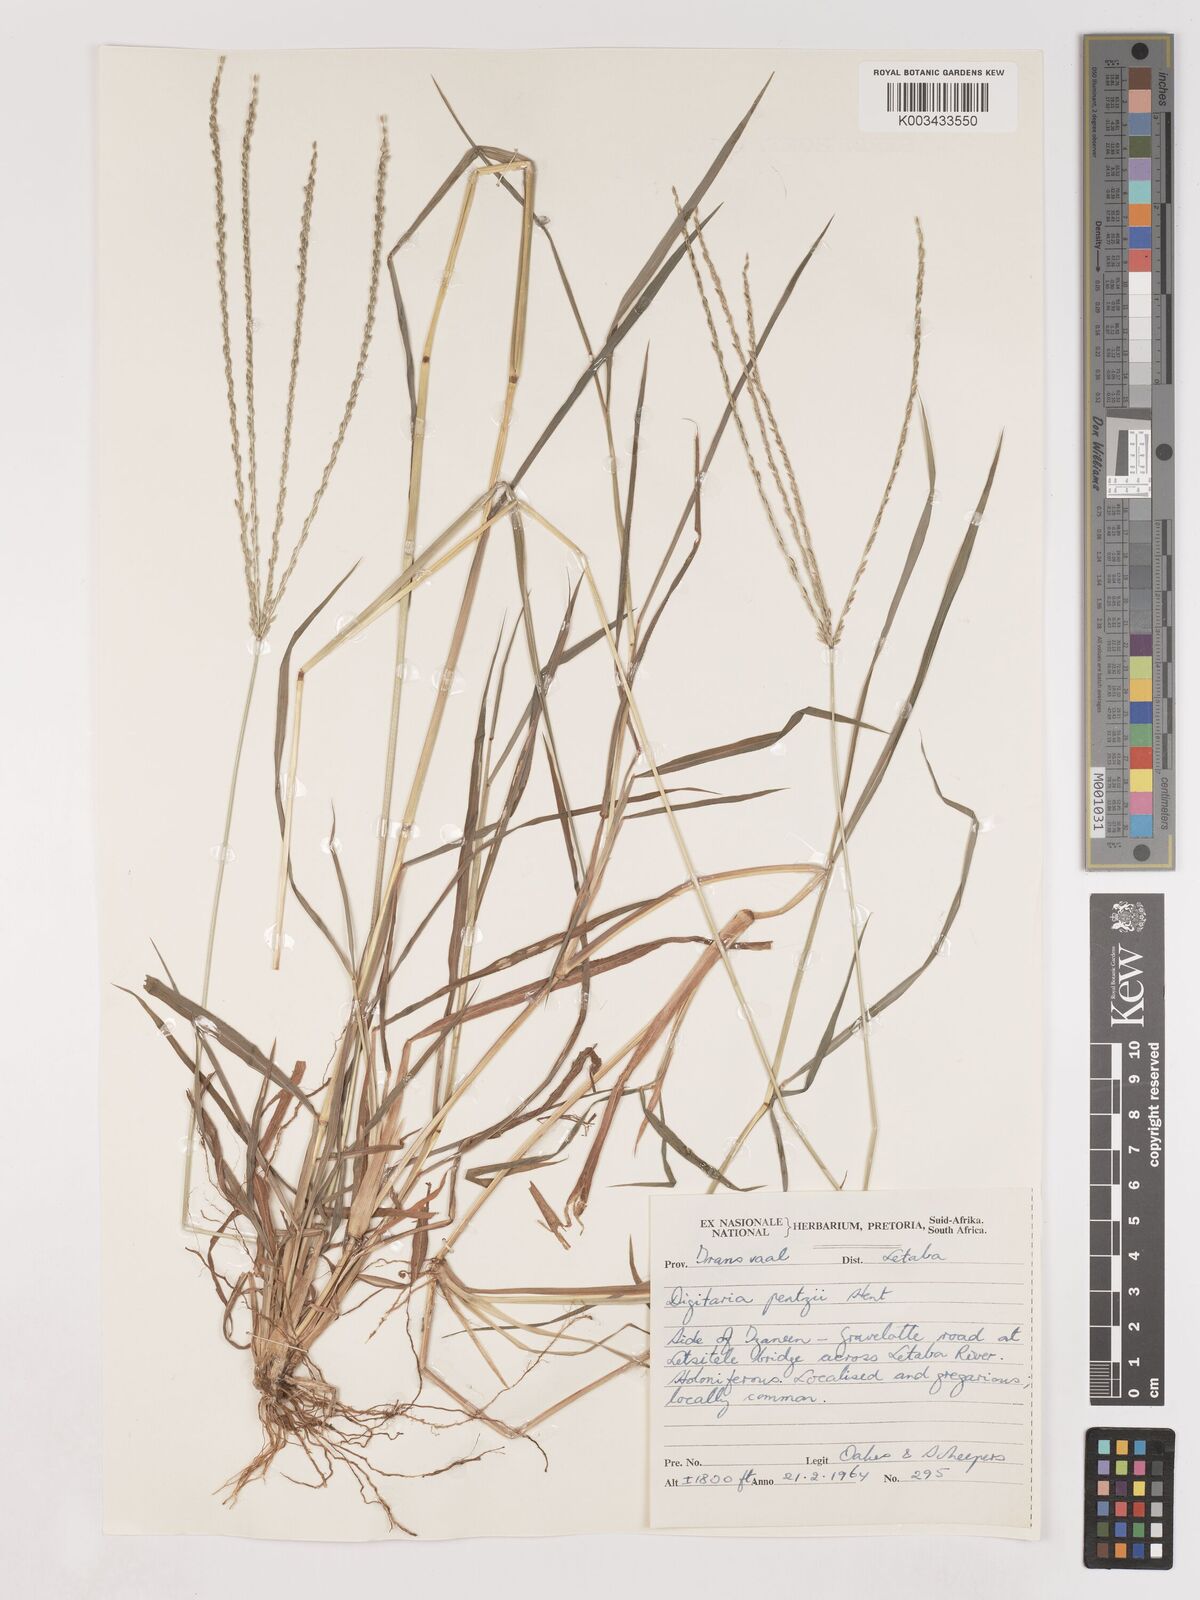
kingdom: Plantae
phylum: Tracheophyta
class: Liliopsida
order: Poales
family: Poaceae
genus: Digitaria
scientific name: Digitaria eriantha
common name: Digitgrass
